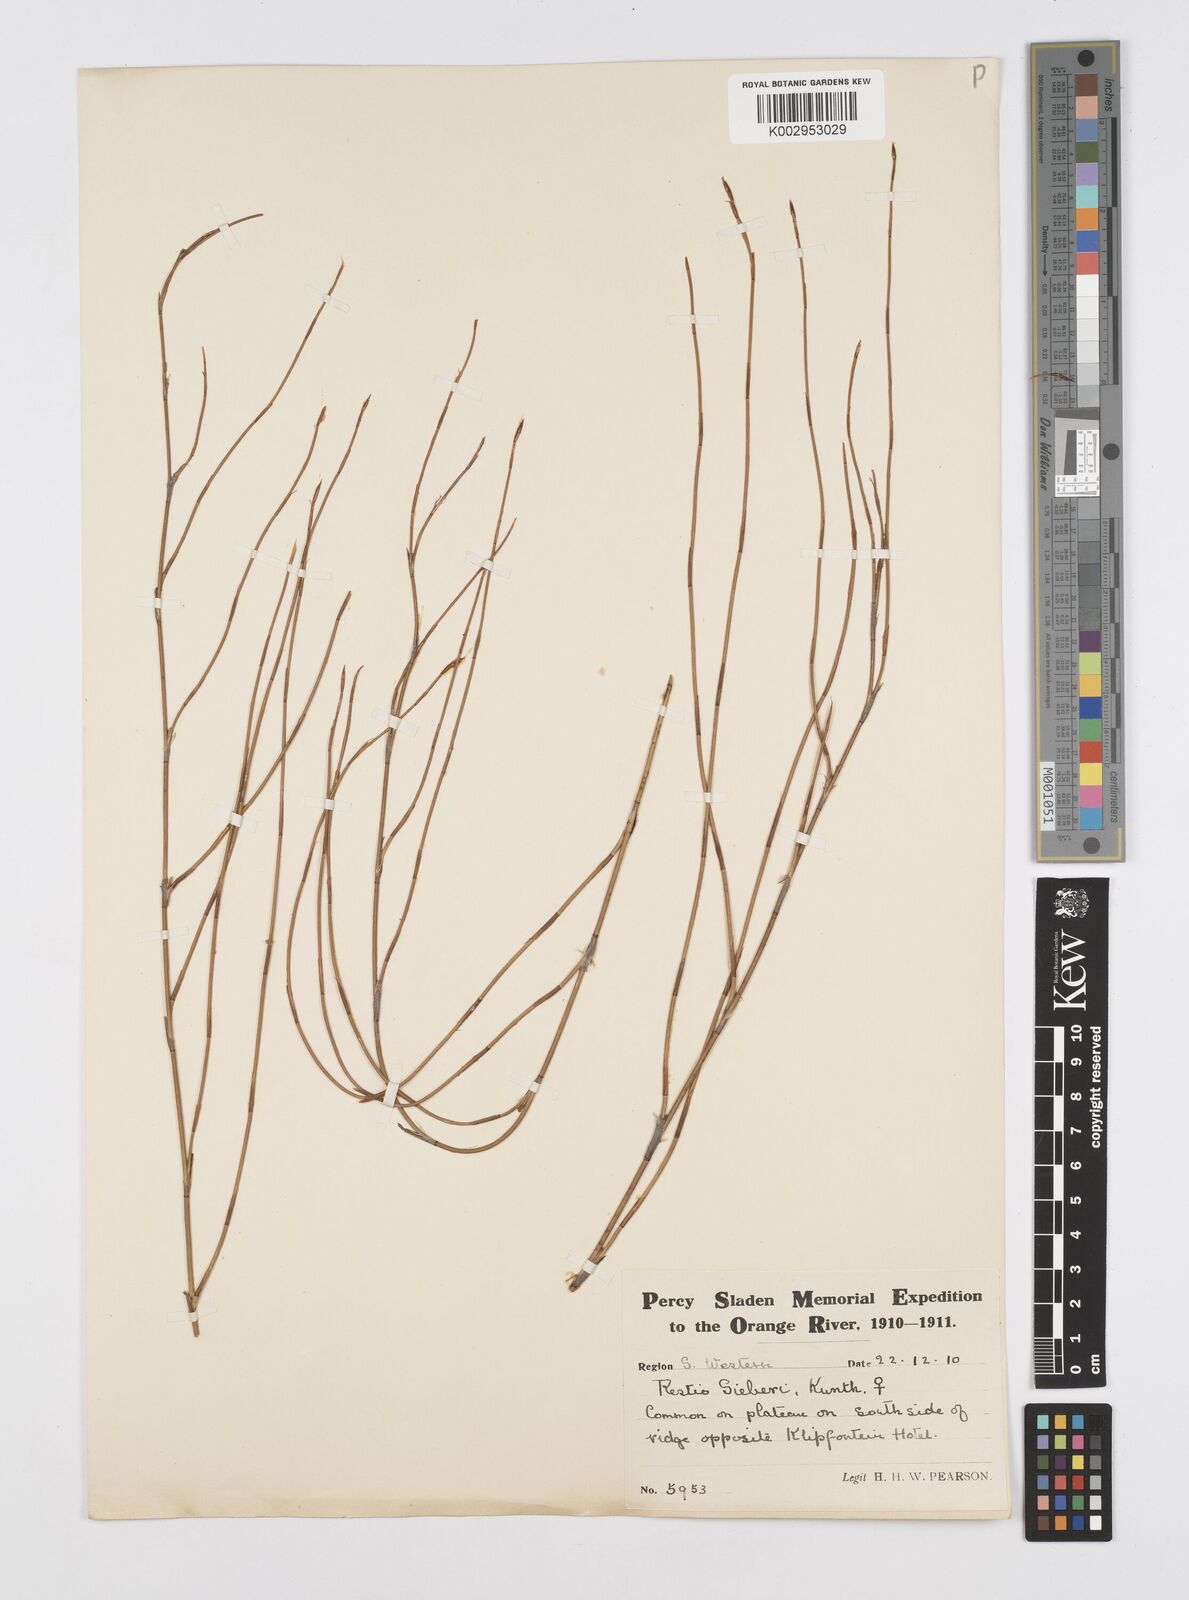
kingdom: Plantae
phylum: Tracheophyta
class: Liliopsida
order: Poales
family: Restionaceae
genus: Restio
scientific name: Restio sieberi
